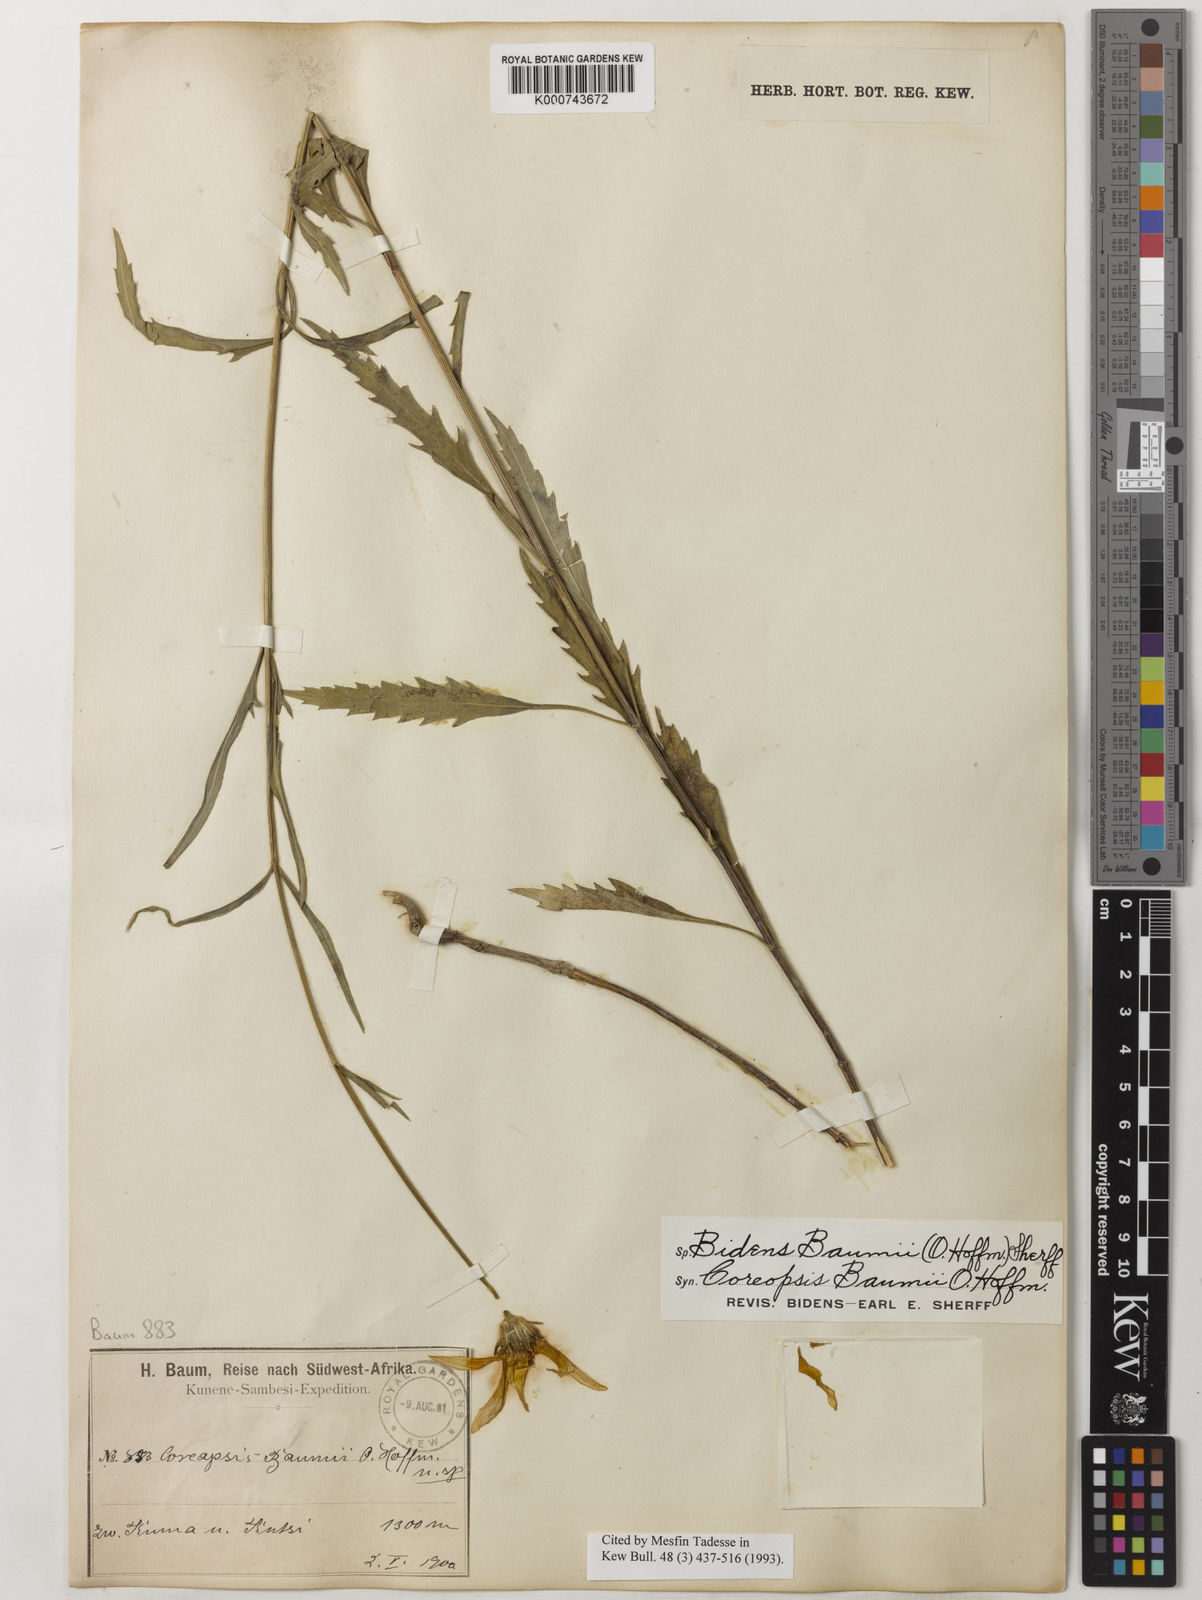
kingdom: Plantae
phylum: Tracheophyta
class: Magnoliopsida
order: Asterales
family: Asteraceae
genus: Bidens
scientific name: Bidens baumii
